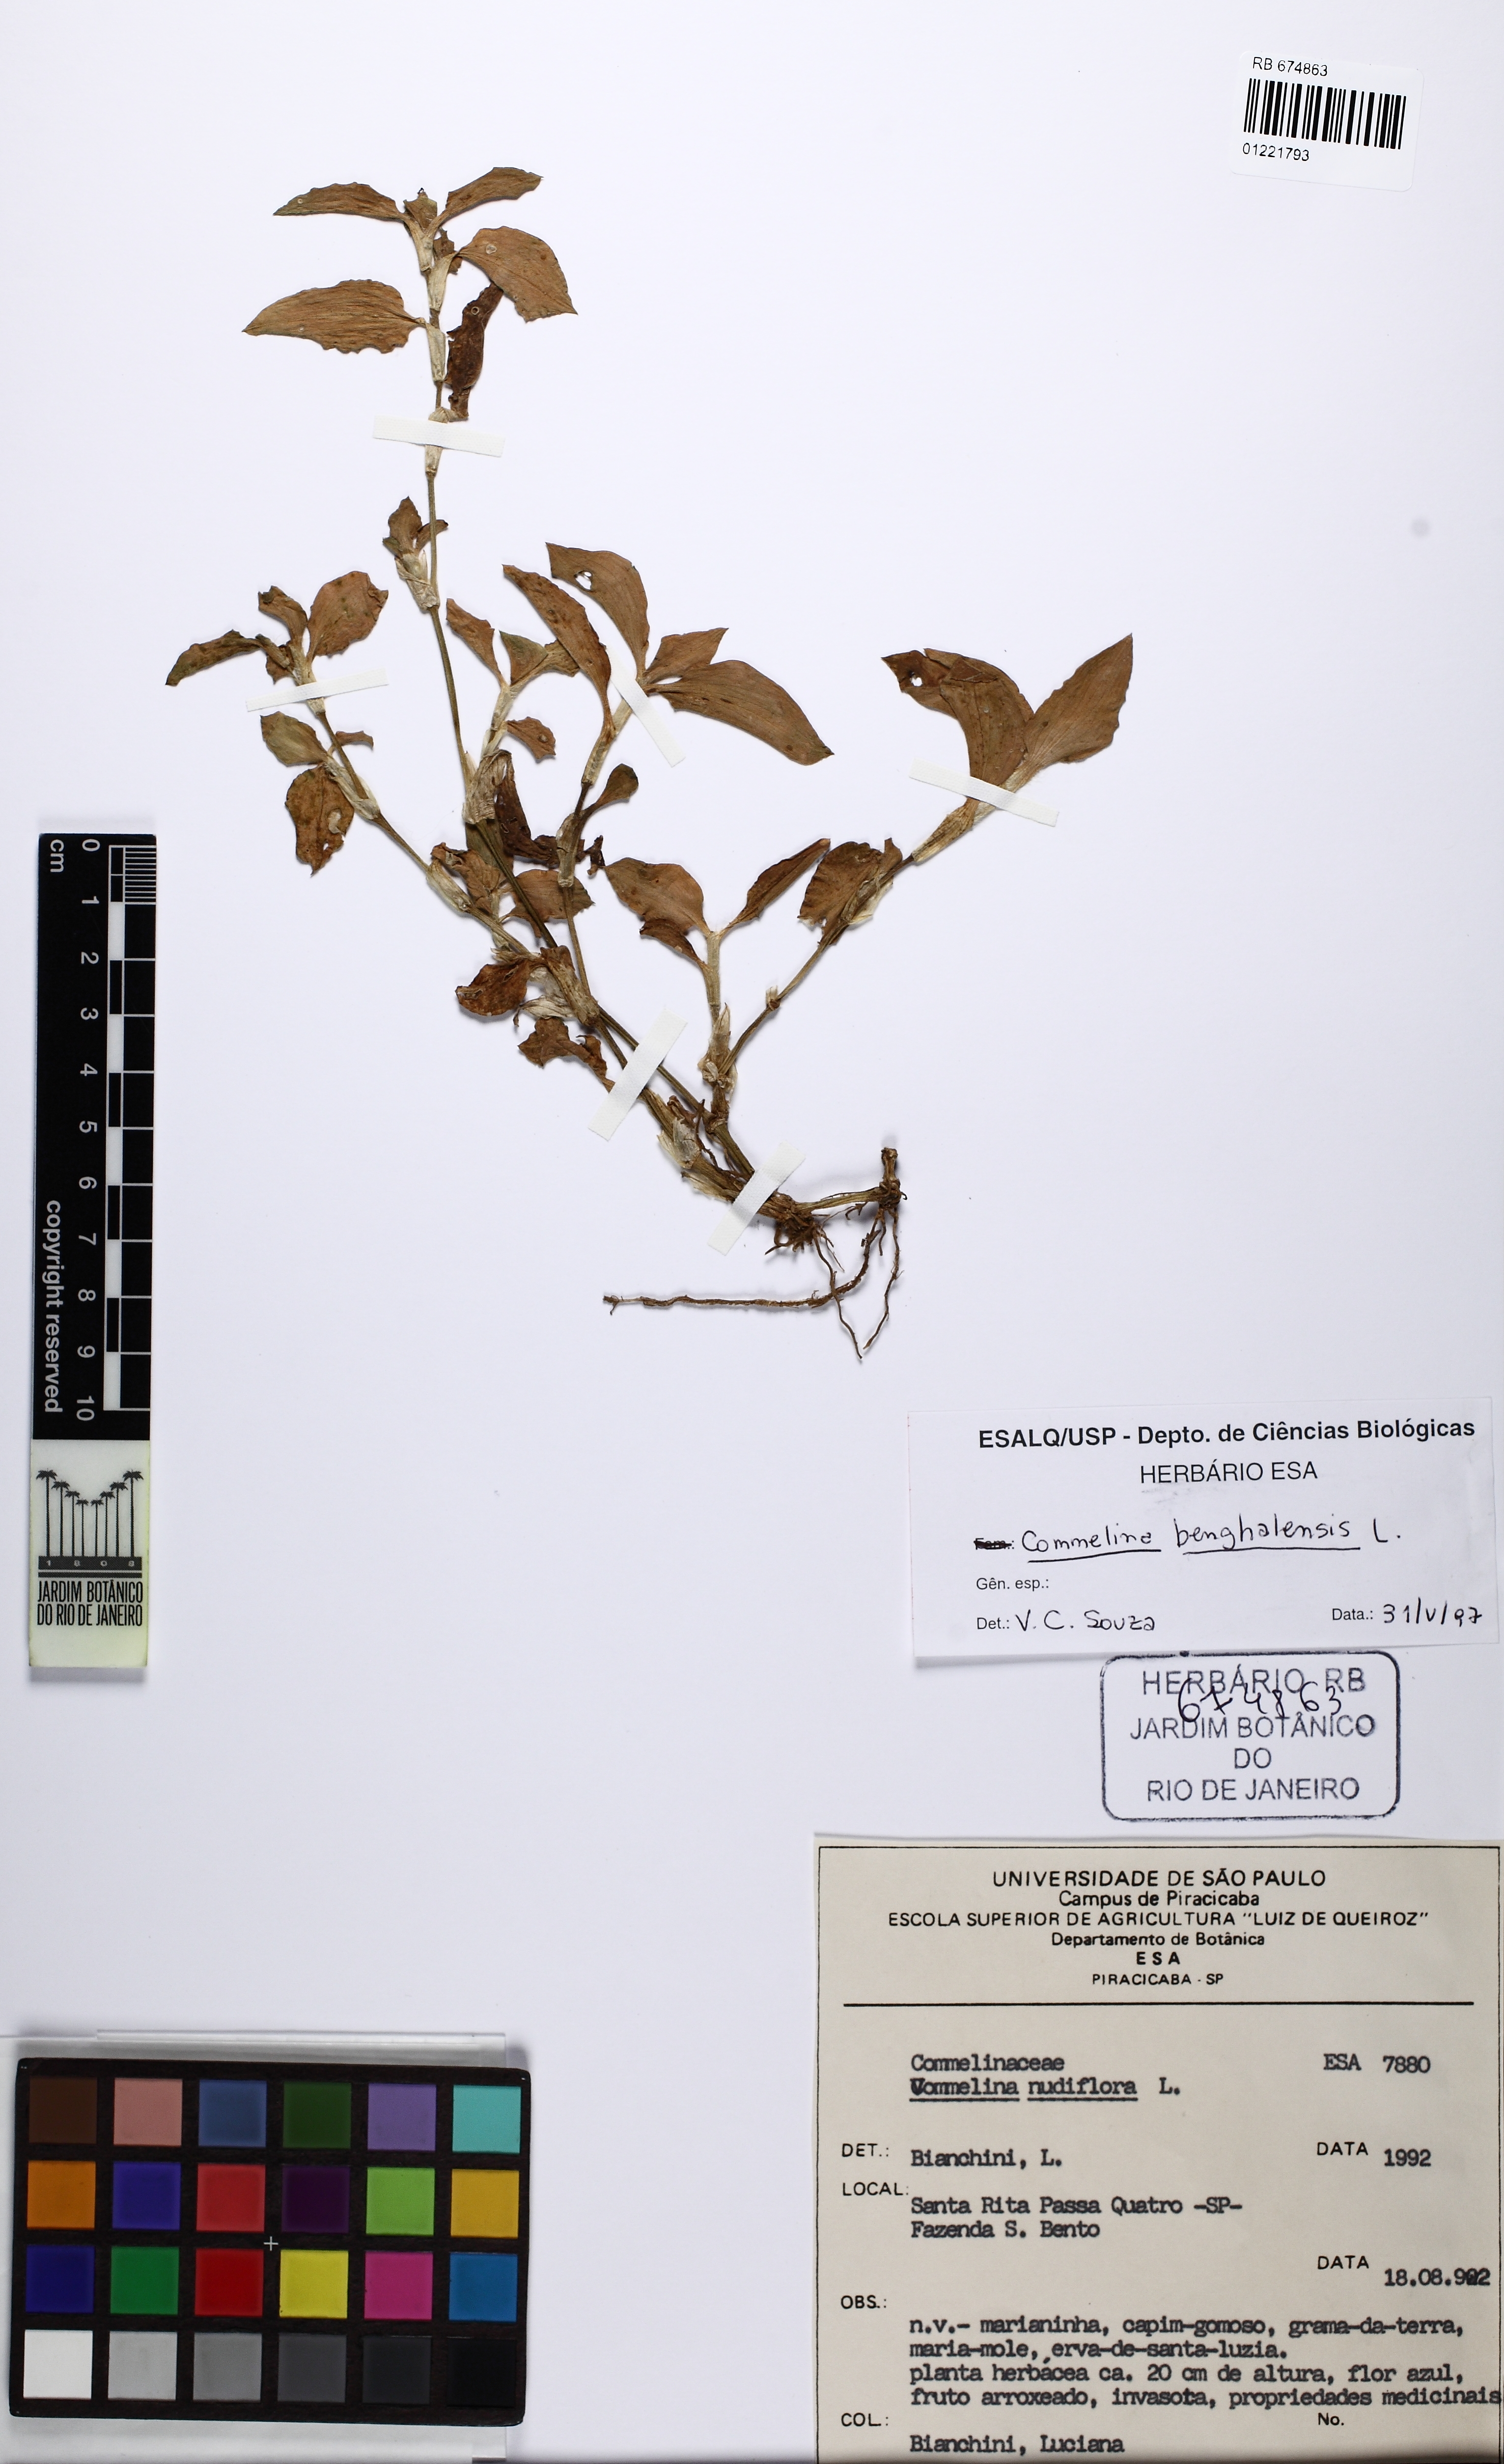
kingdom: Plantae
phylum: Tracheophyta
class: Liliopsida
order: Commelinales
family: Commelinaceae
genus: Commelina
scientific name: Commelina benghalensis
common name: Jio
